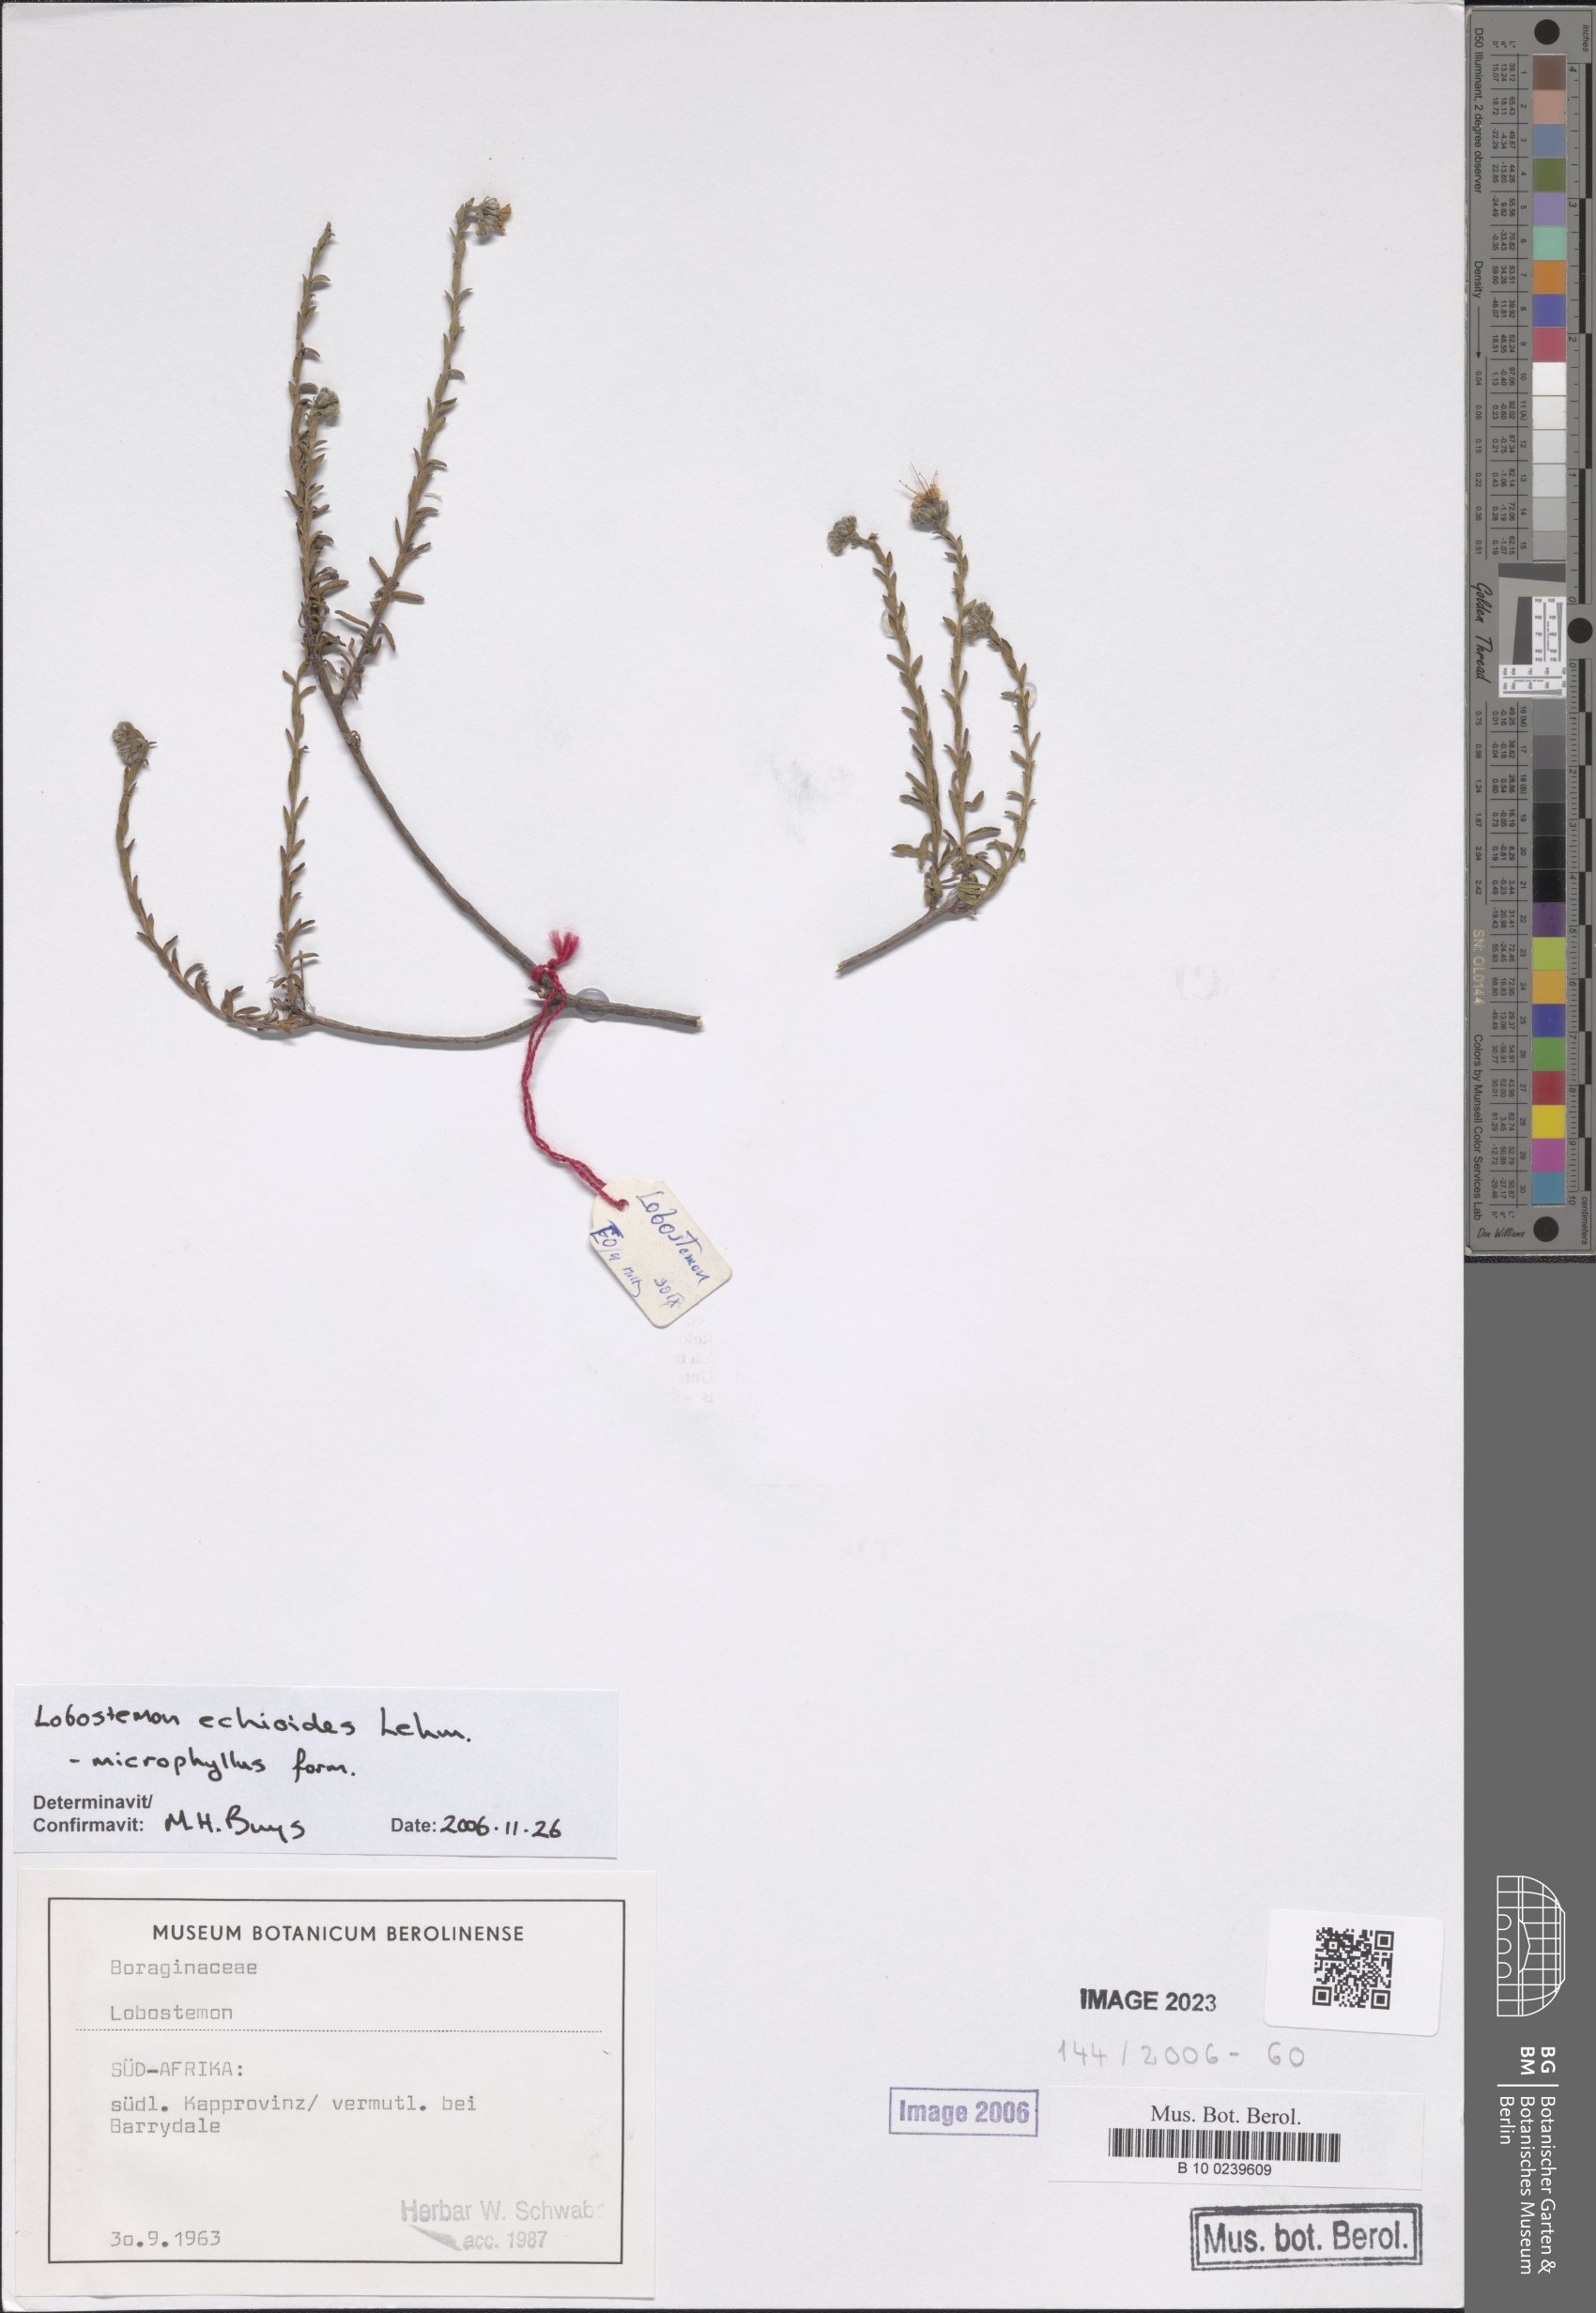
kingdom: Plantae
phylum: Tracheophyta
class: Magnoliopsida
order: Boraginales
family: Boraginaceae
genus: Lobostemon
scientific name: Lobostemon echioides
